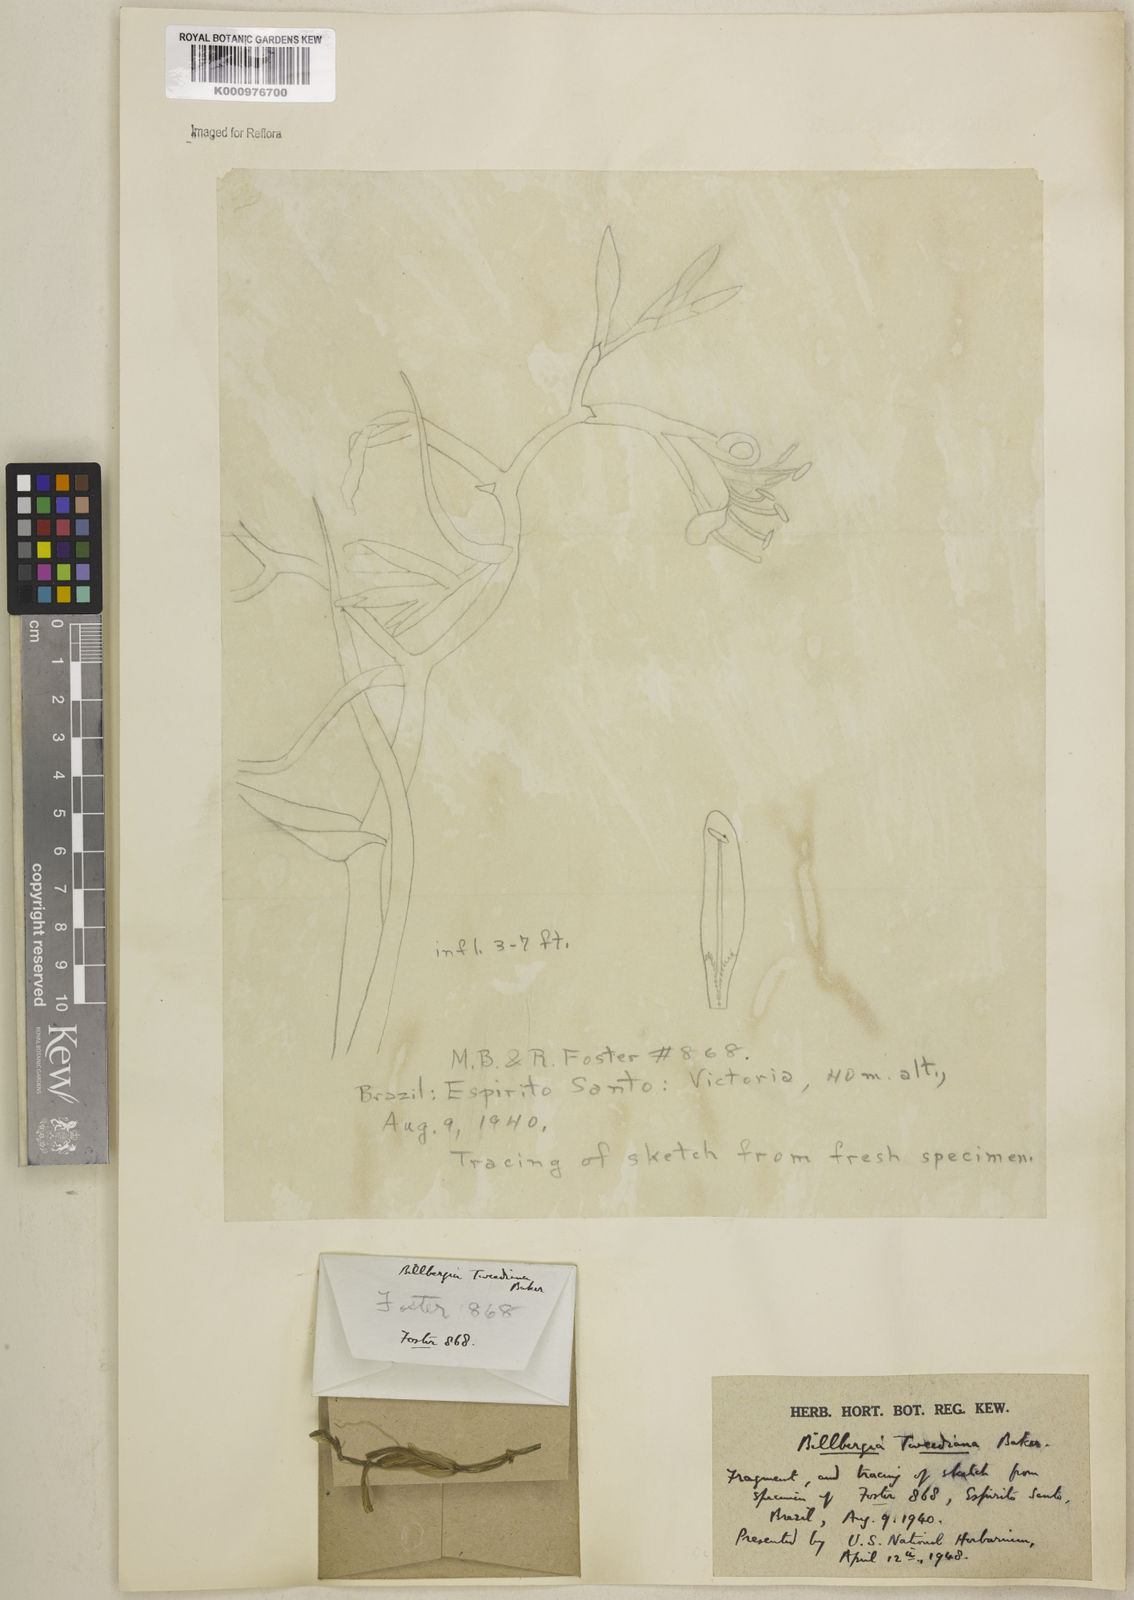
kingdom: Plantae
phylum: Tracheophyta
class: Liliopsida
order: Poales
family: Bromeliaceae
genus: Billbergia
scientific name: Billbergia tweedieana
